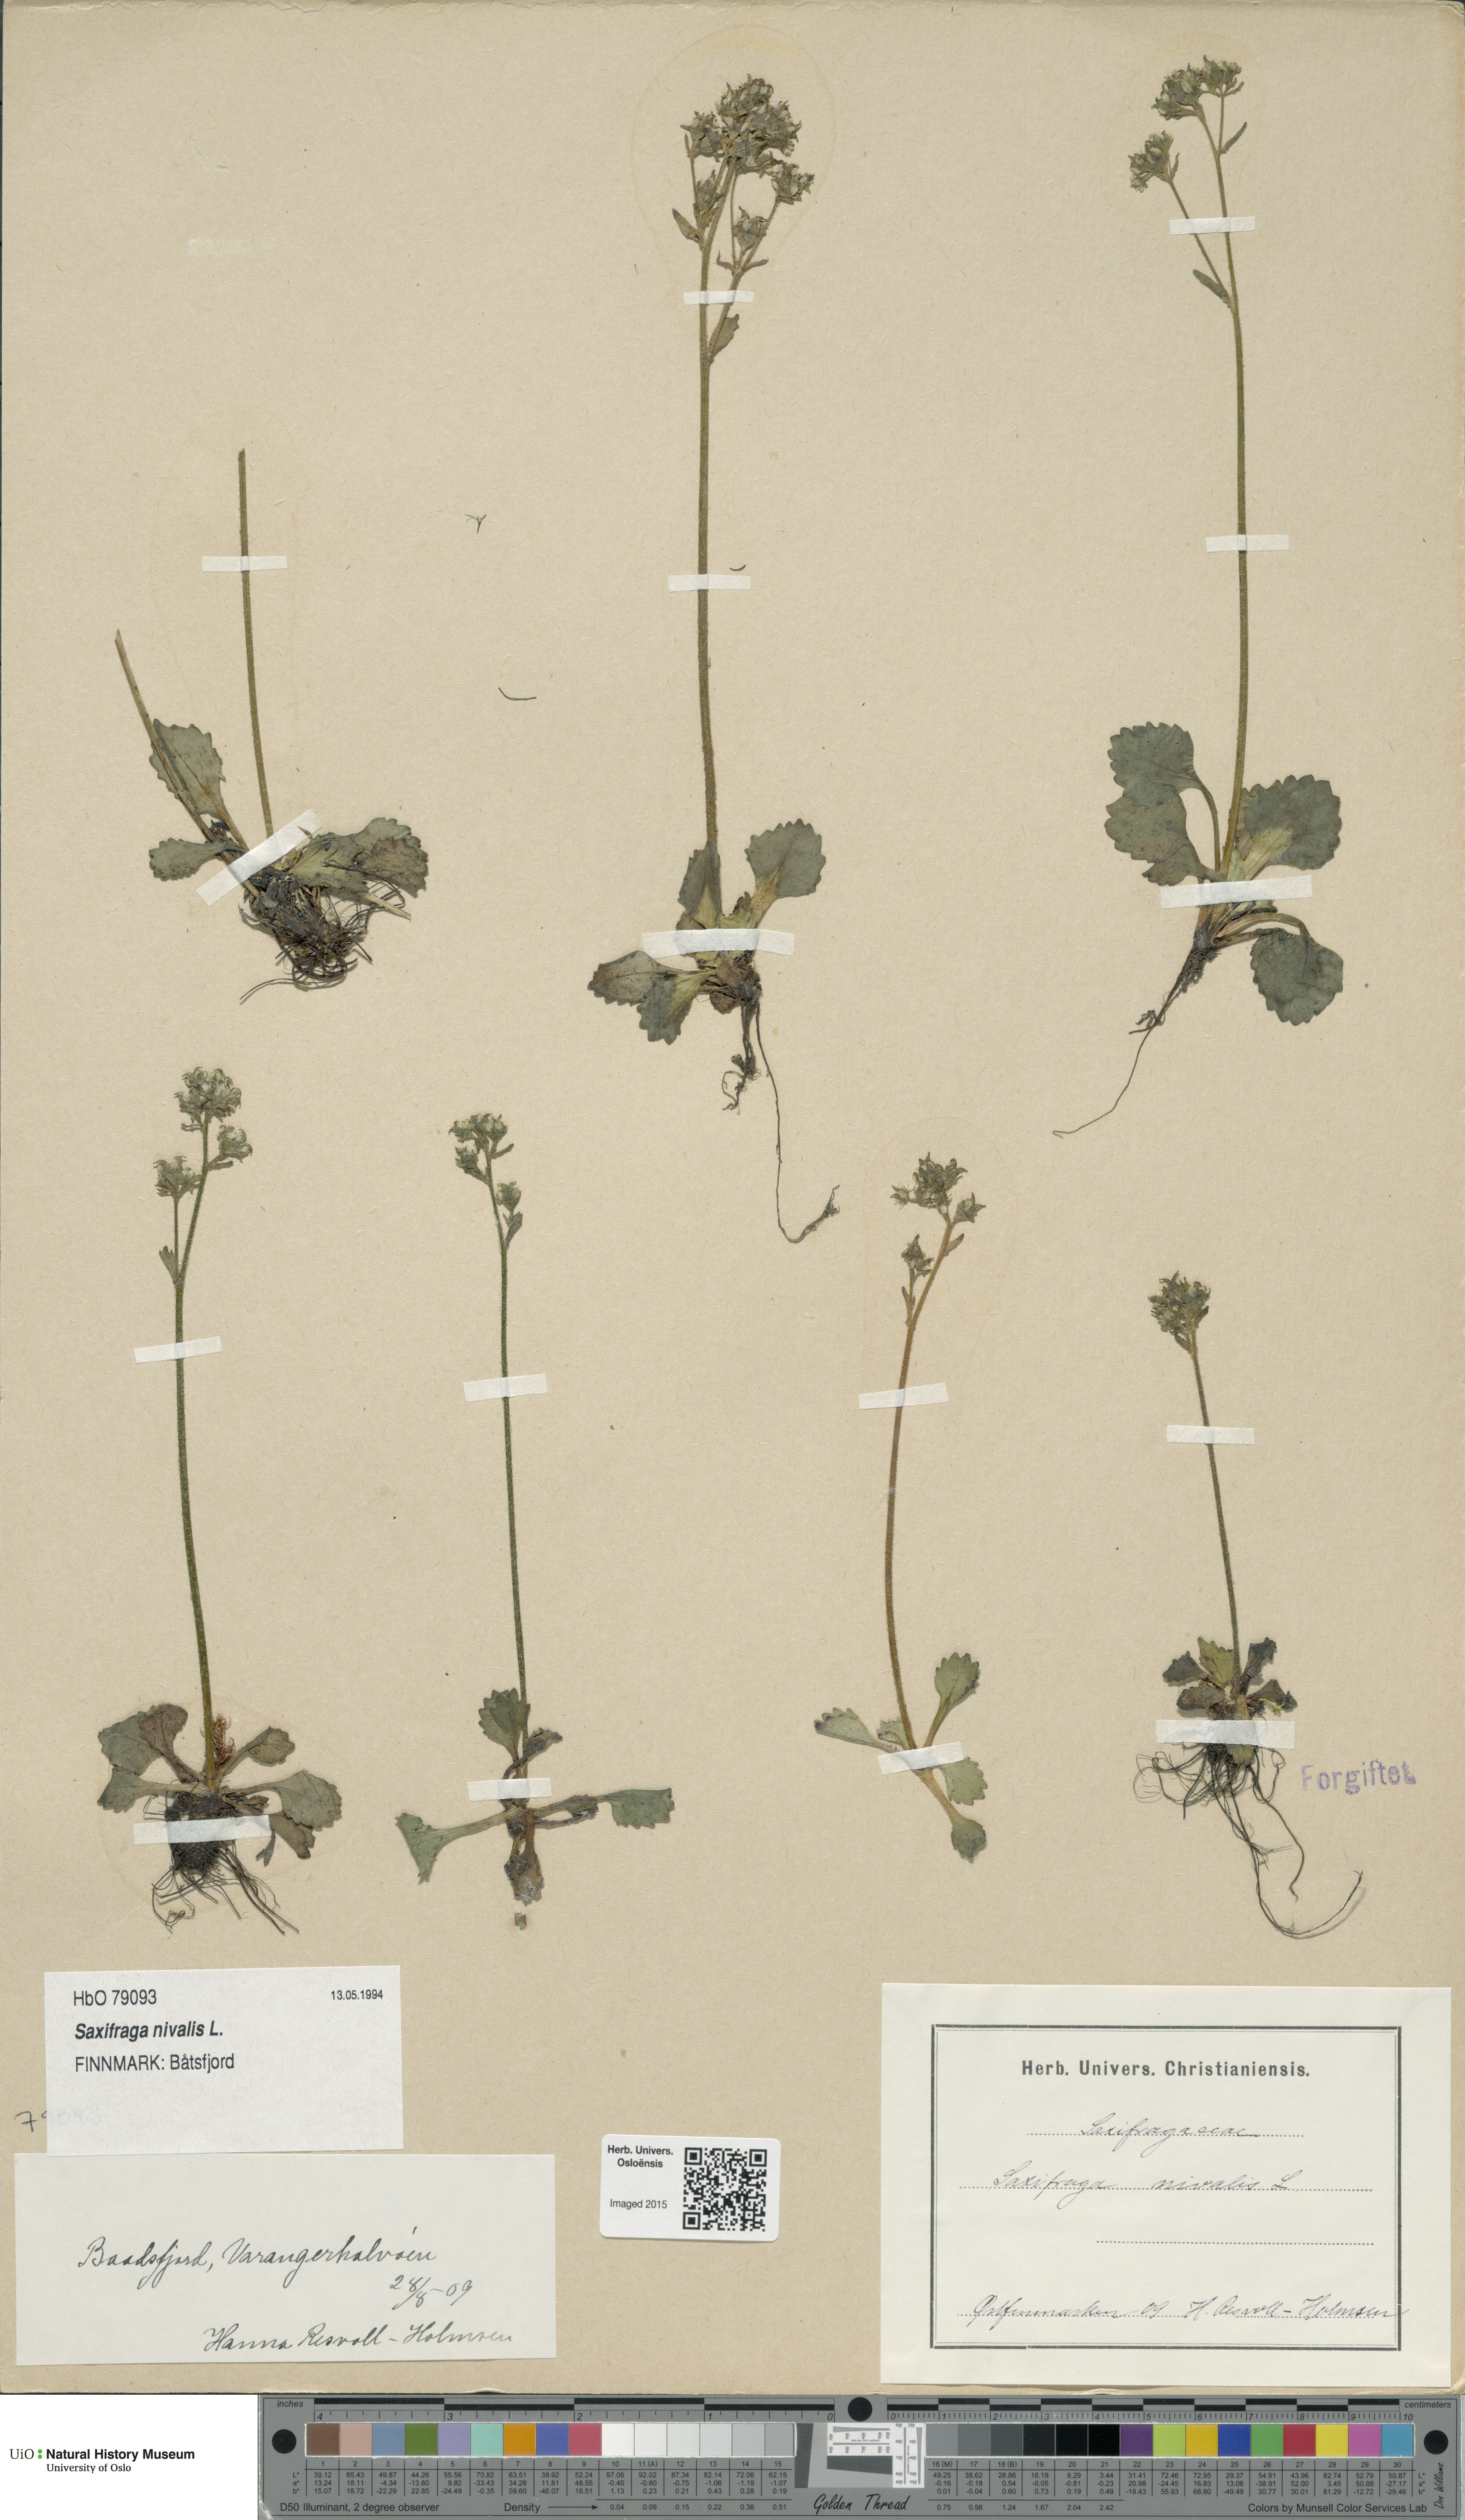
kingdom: Plantae
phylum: Tracheophyta
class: Magnoliopsida
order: Saxifragales
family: Saxifragaceae
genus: Micranthes
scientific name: Micranthes nivalis
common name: Alpine saxifrage
